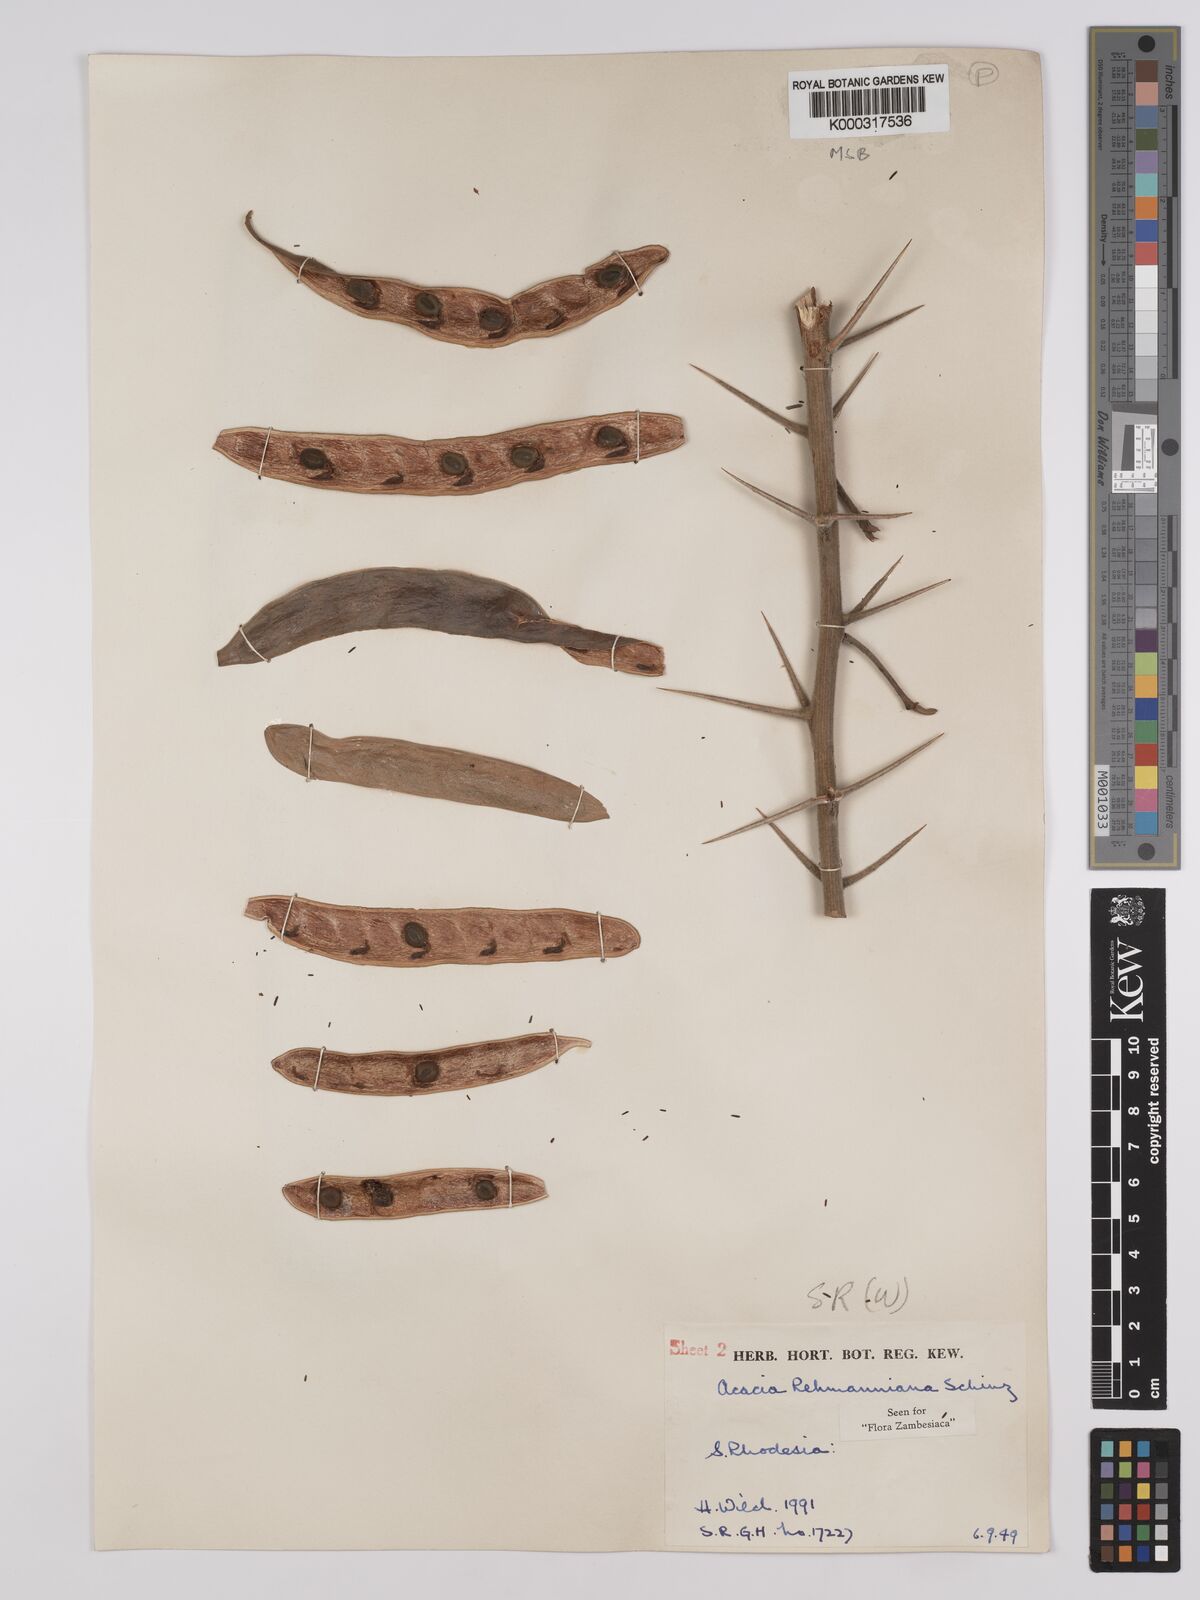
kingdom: Plantae
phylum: Tracheophyta
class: Magnoliopsida
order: Fabales
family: Fabaceae
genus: Vachellia
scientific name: Vachellia rehmanniana
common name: Silky thorn
